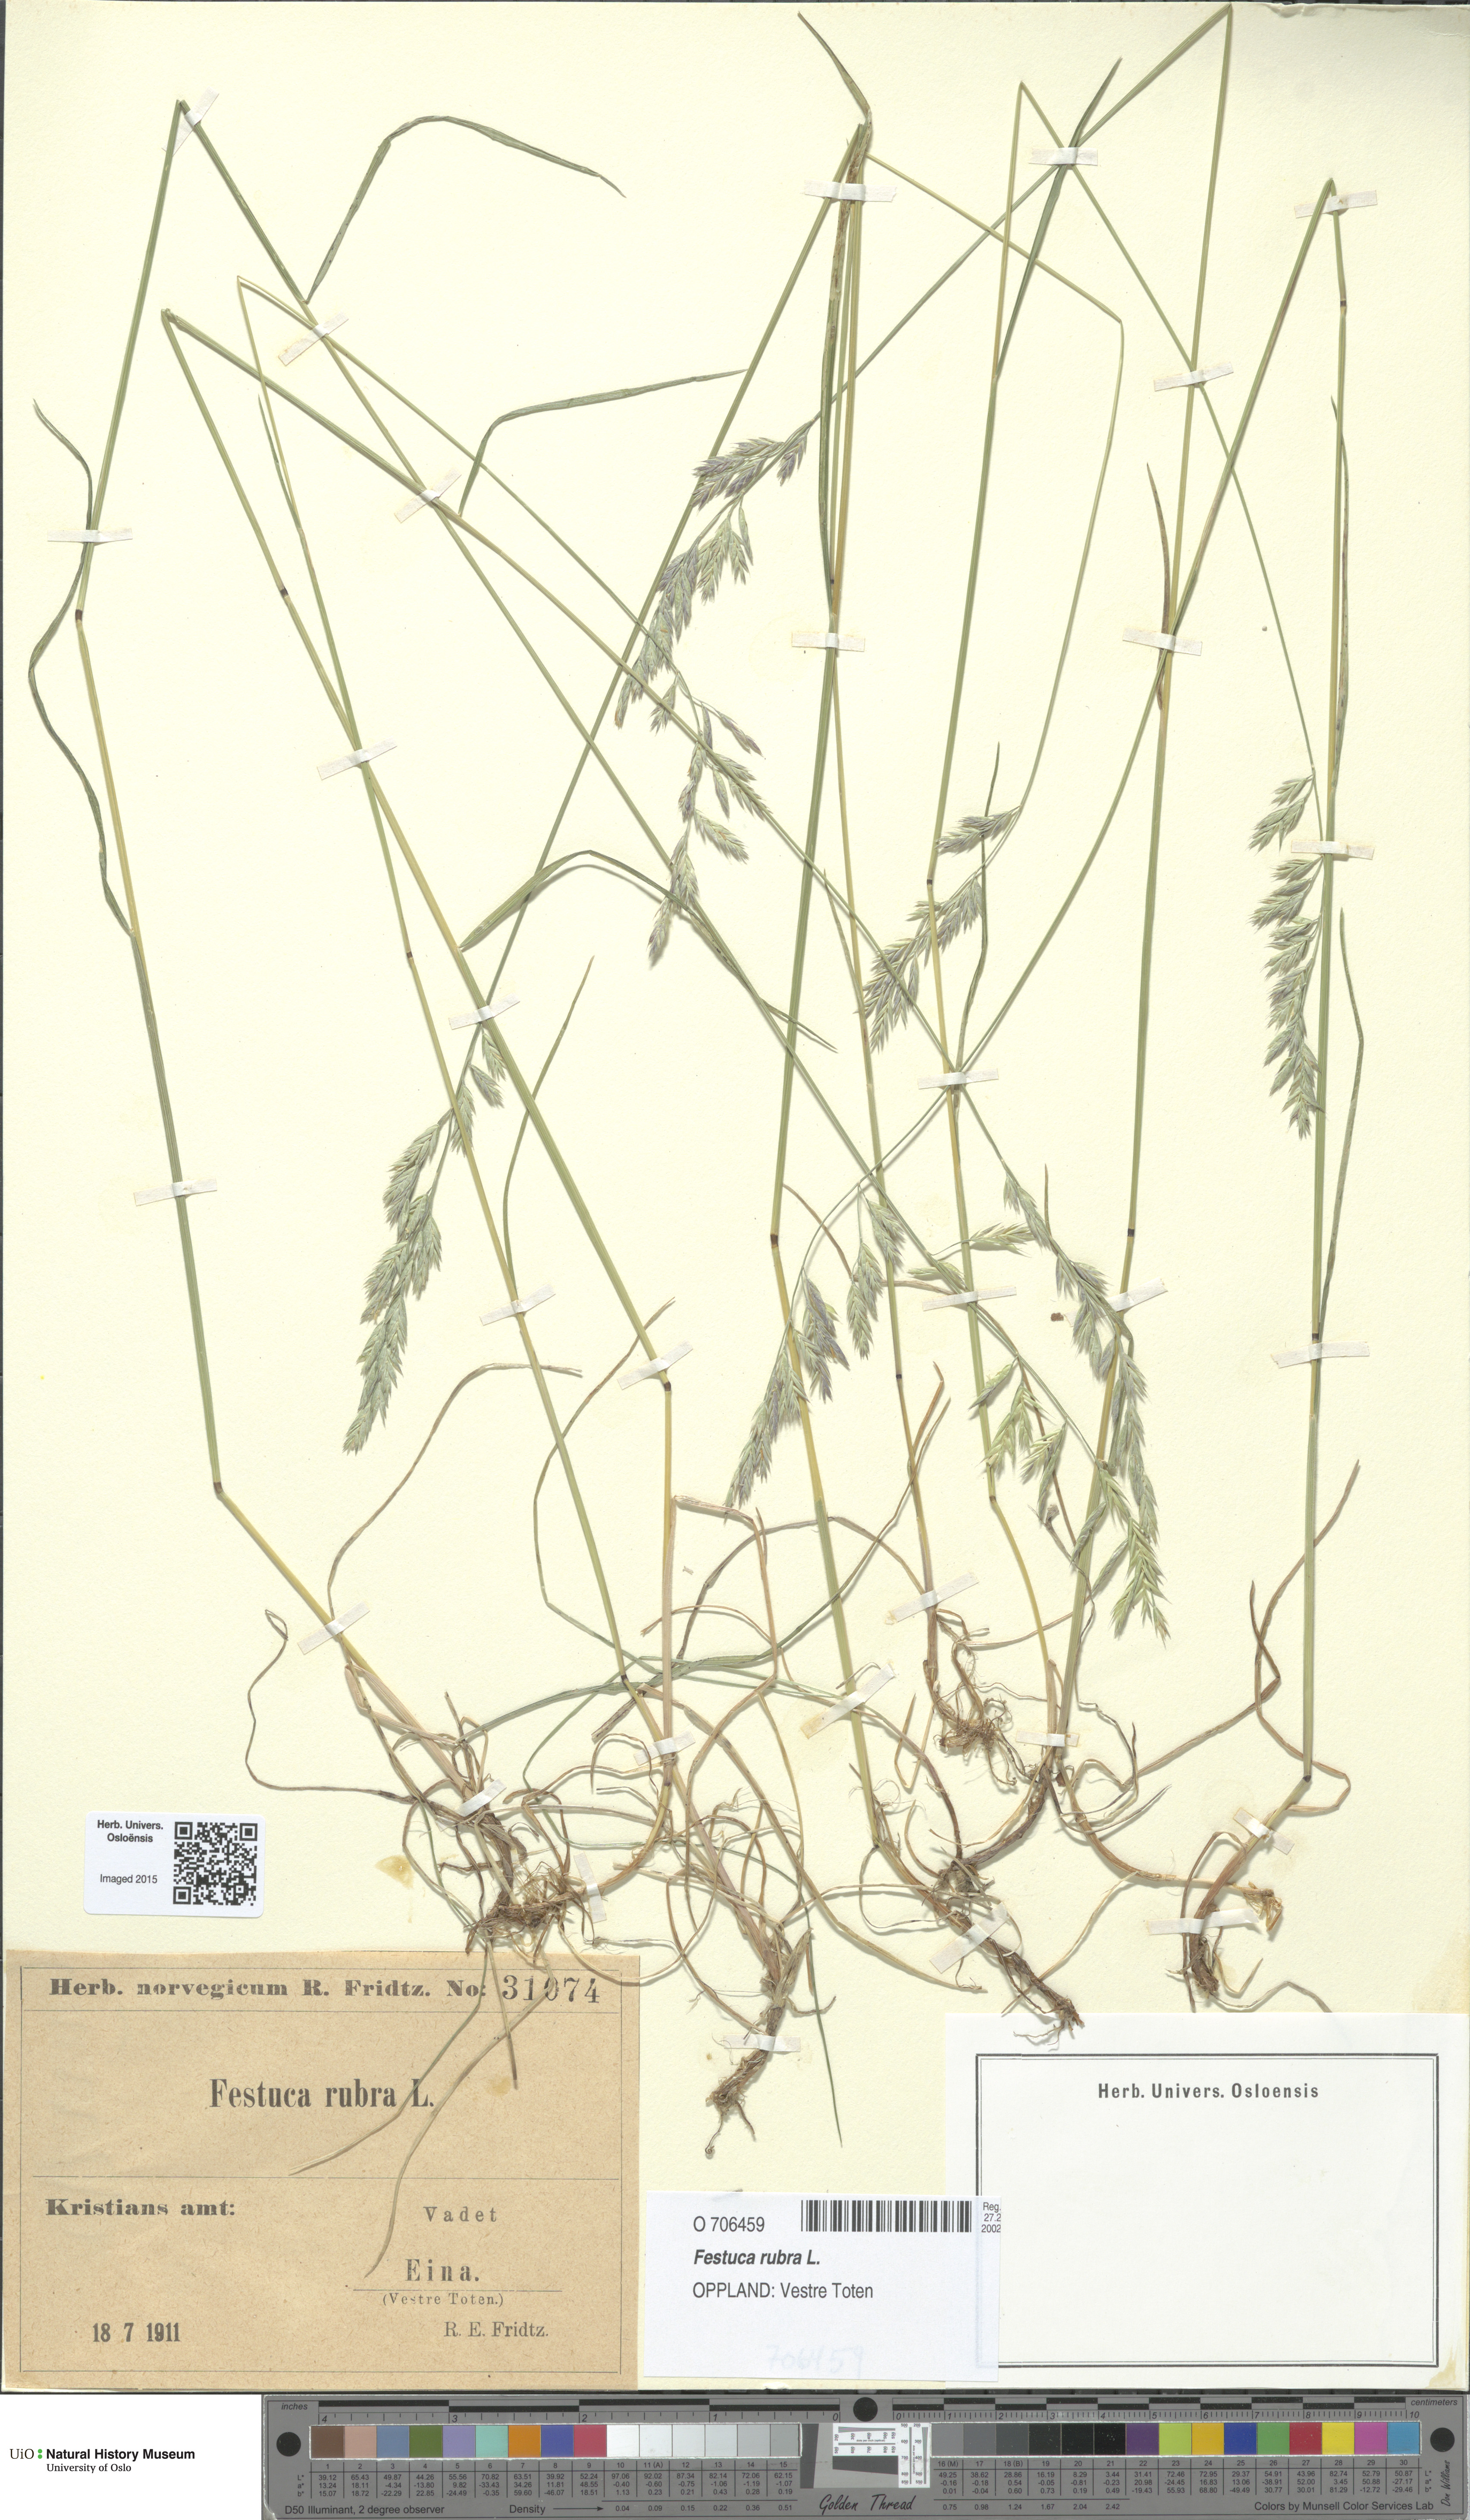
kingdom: Plantae
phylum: Tracheophyta
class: Liliopsida
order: Poales
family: Poaceae
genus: Festuca
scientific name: Festuca rubra
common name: Red fescue
